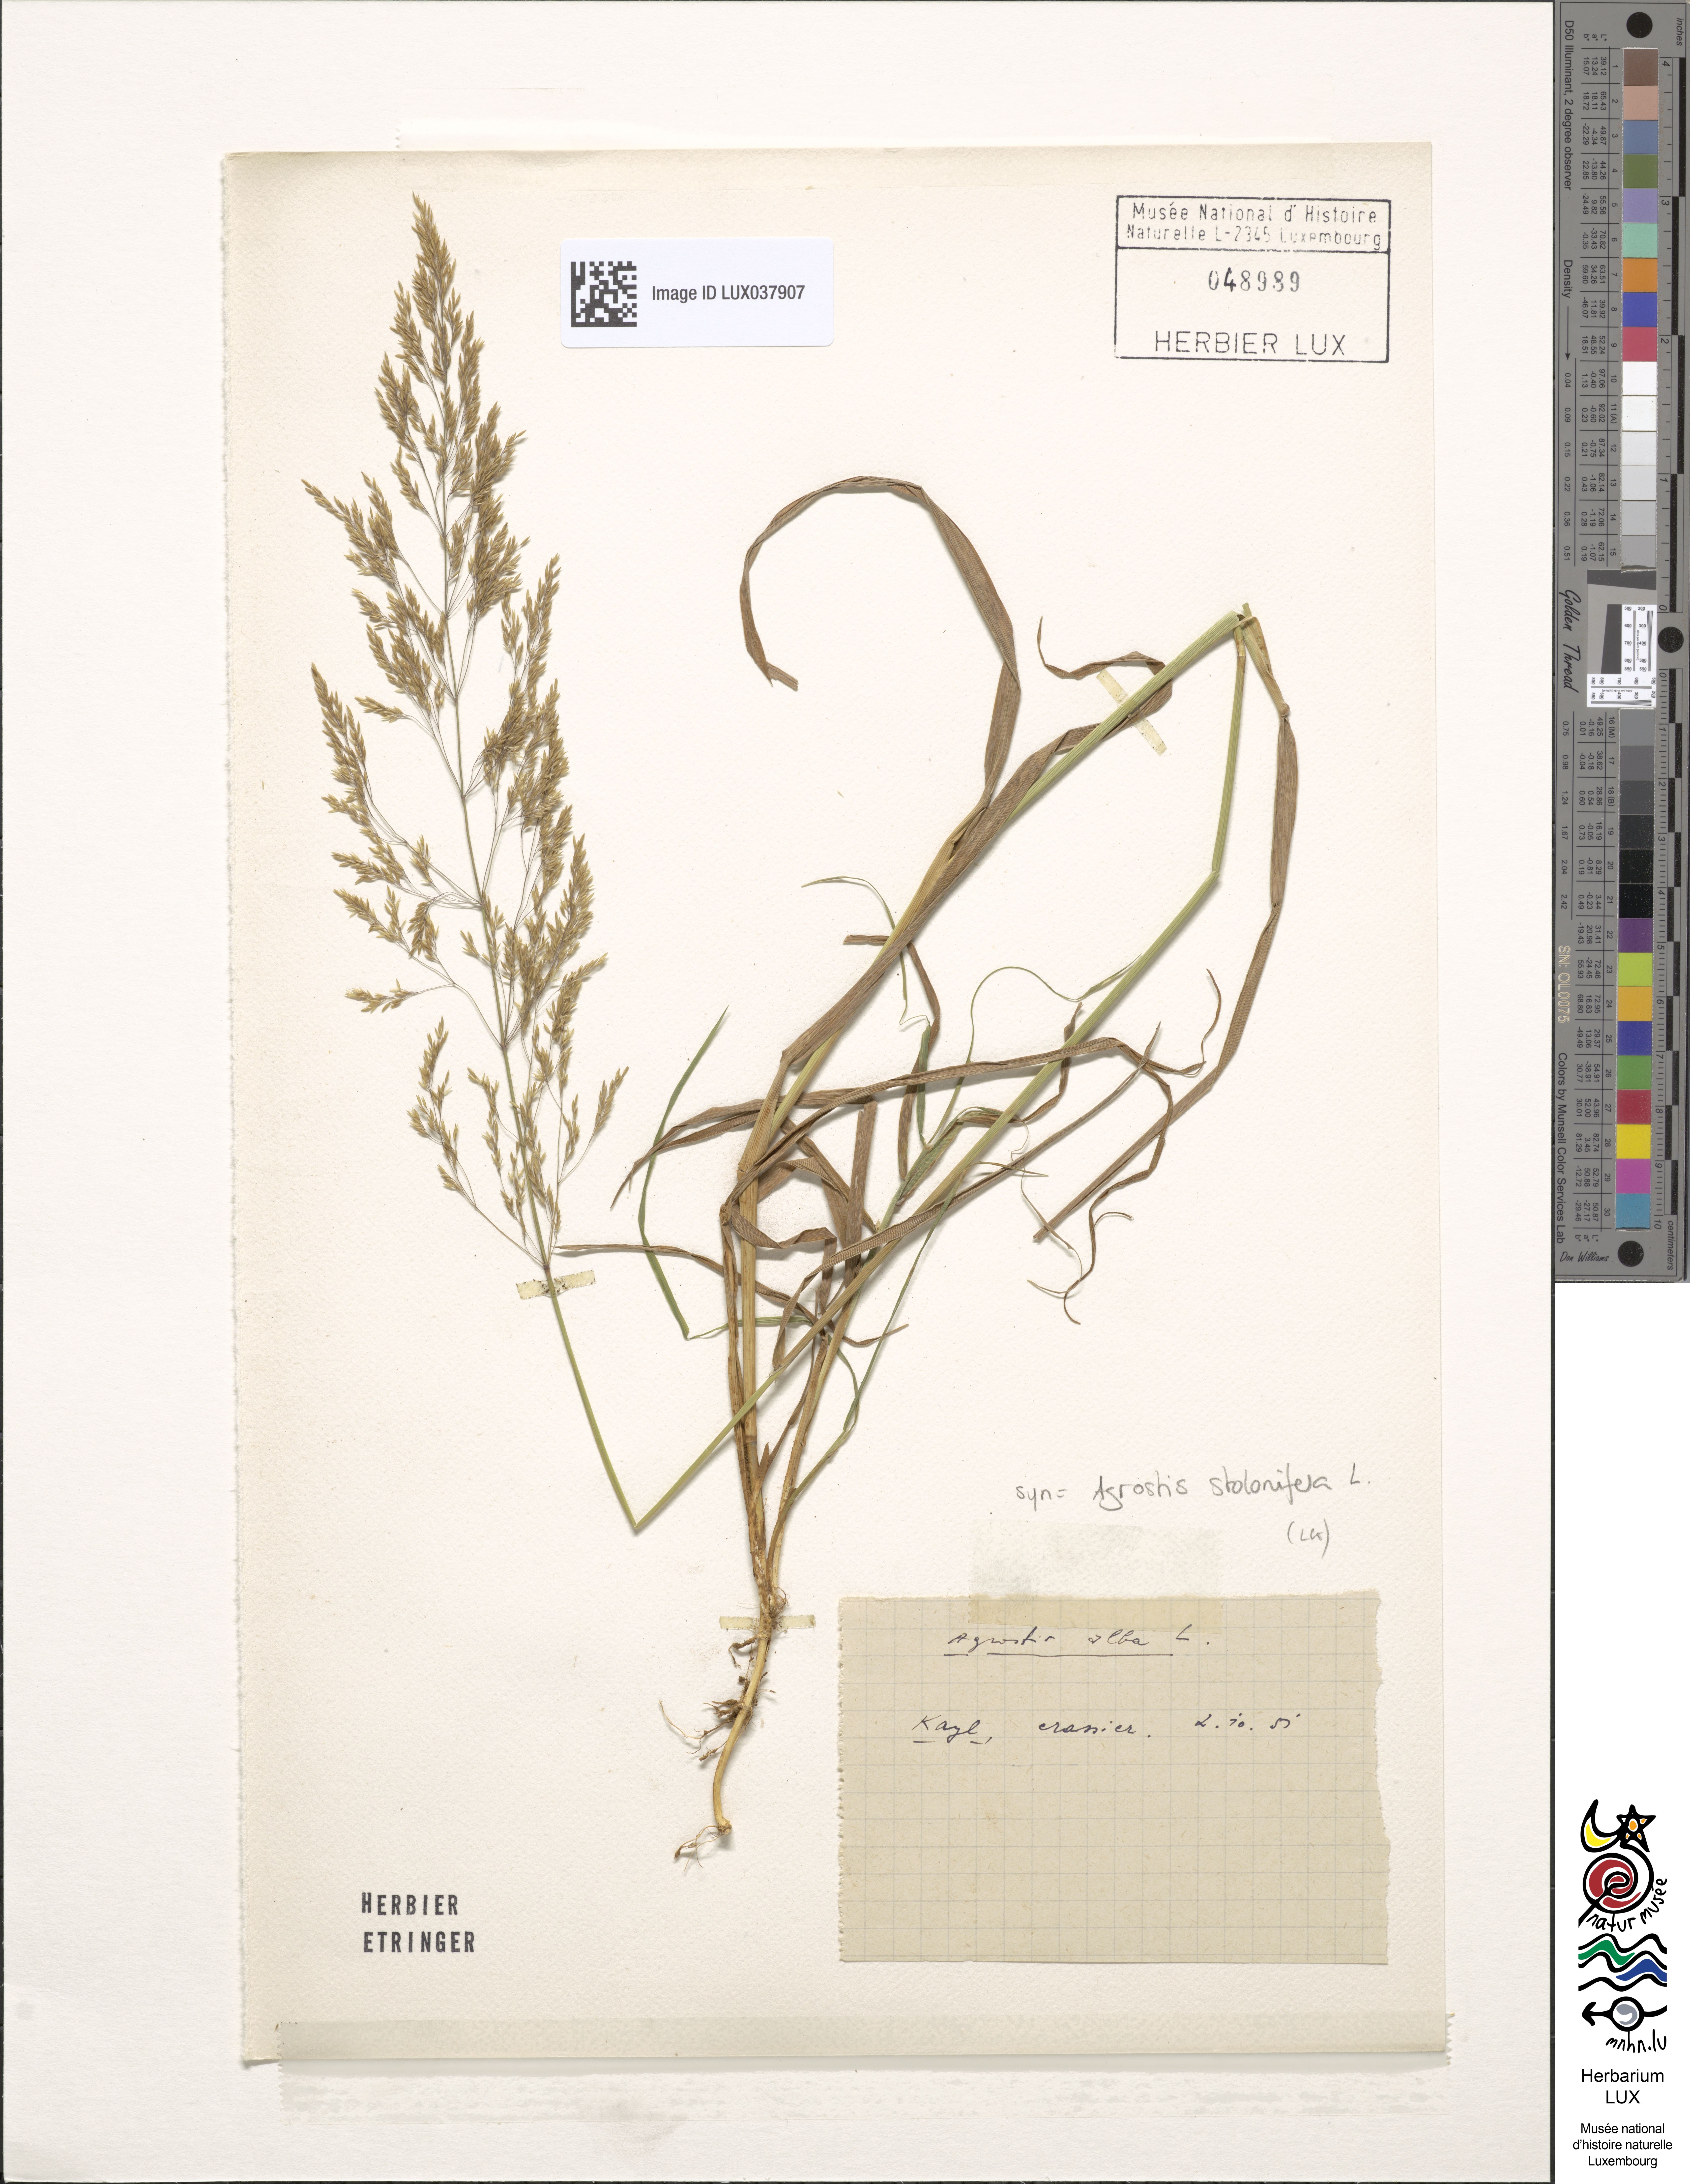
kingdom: Plantae
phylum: Tracheophyta
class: Liliopsida
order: Poales
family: Poaceae
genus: Agrostis
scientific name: Agrostis stolonifera
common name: Creeping bentgrass
